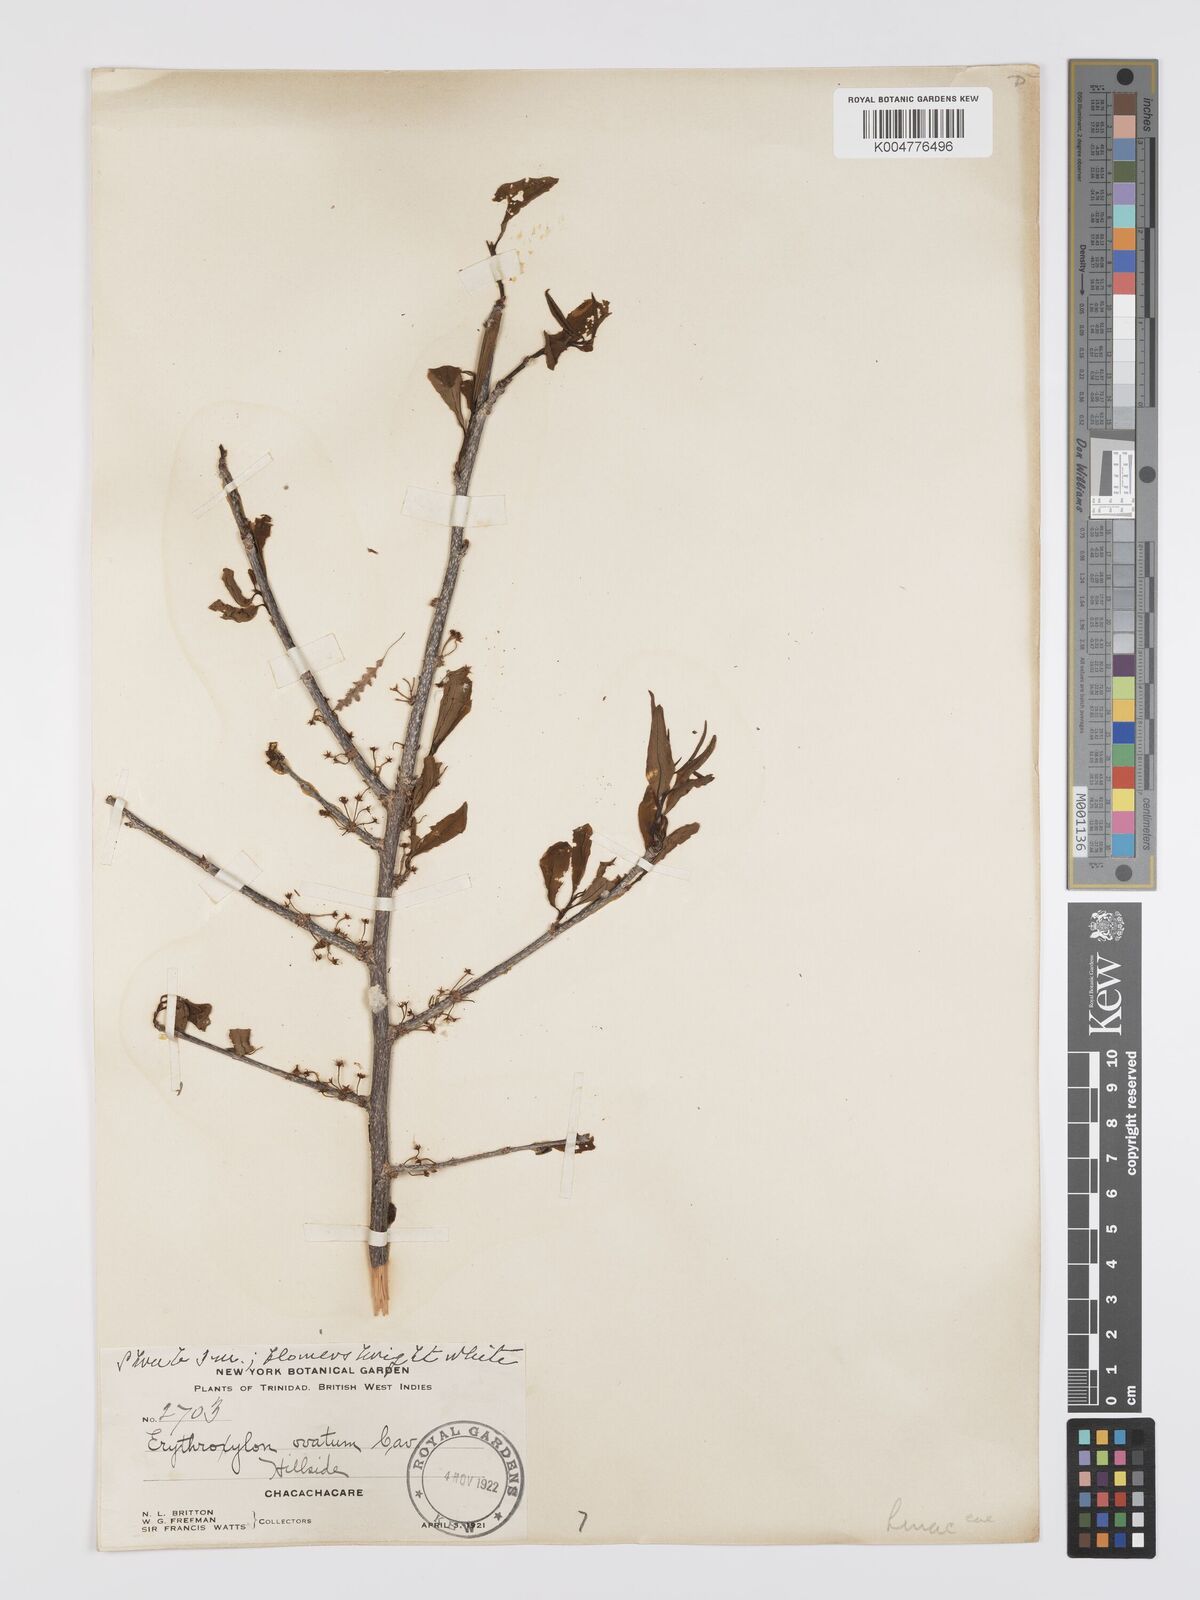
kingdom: Plantae
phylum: Tracheophyta
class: Magnoliopsida
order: Malpighiales
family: Erythroxylaceae
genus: Erythroxylum
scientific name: Erythroxylum havanense
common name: Bracelet
